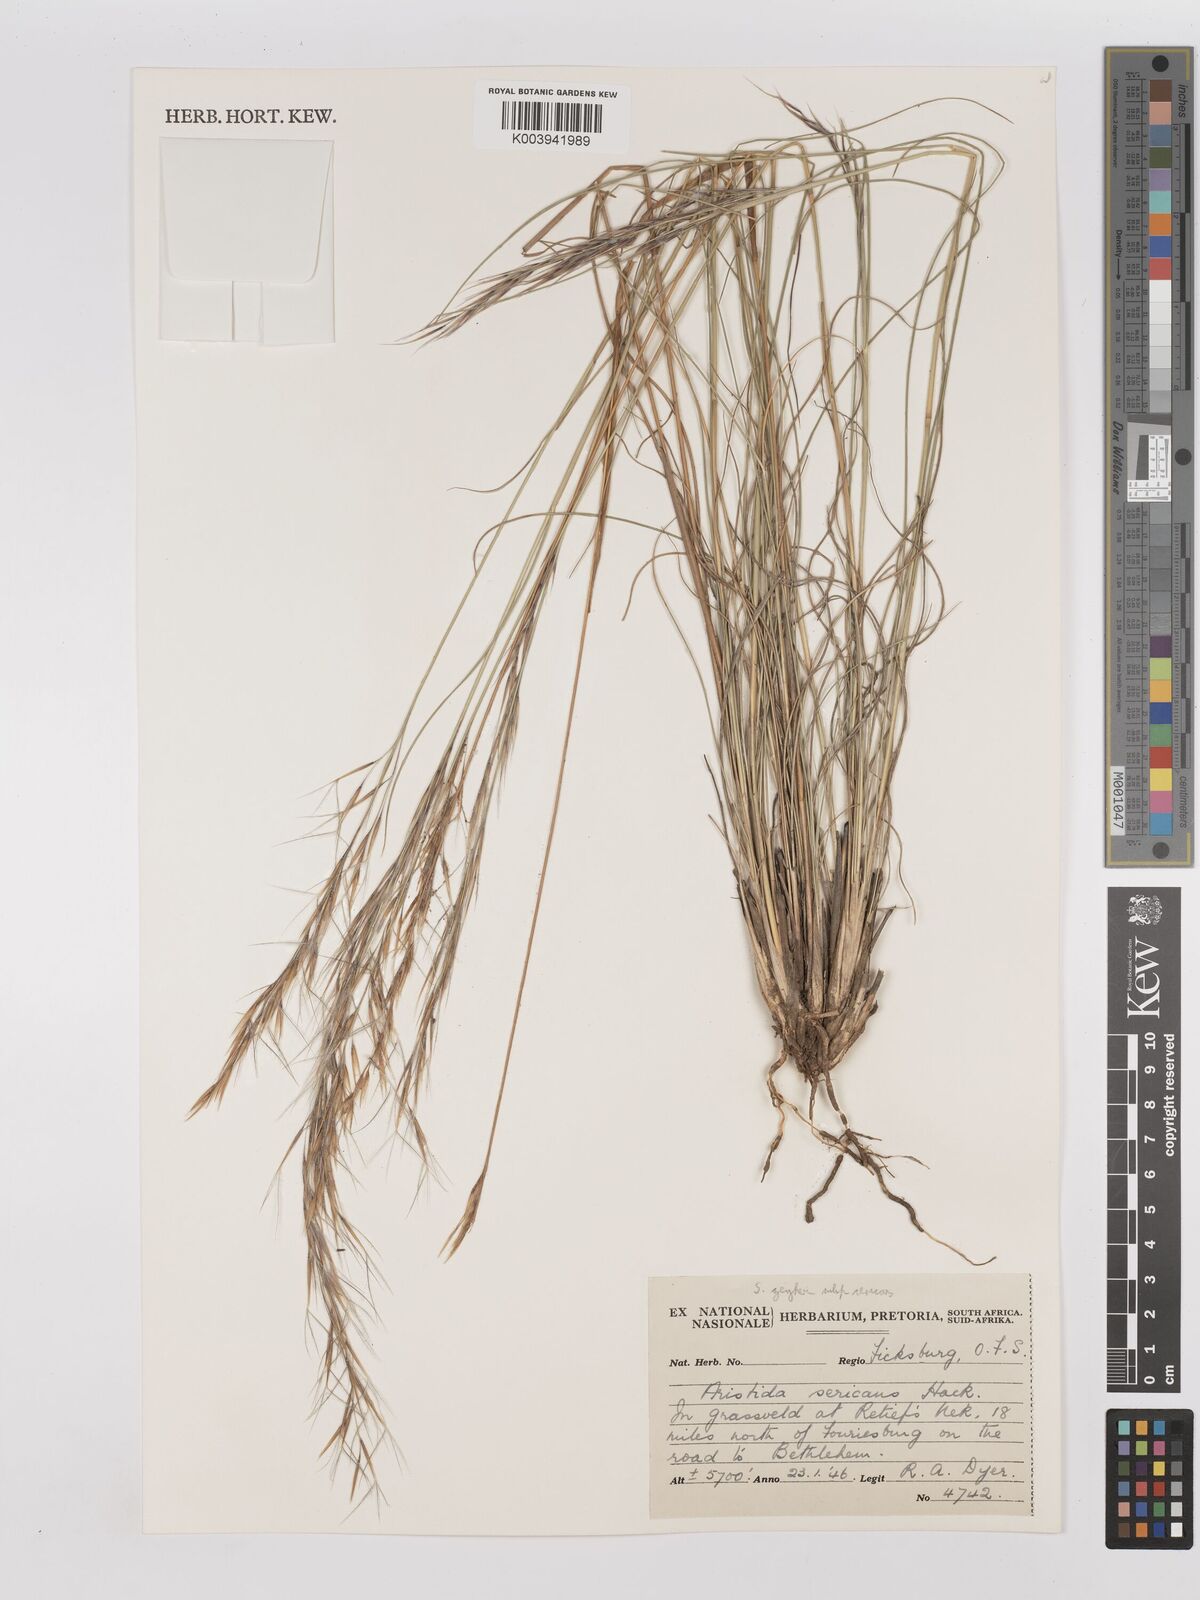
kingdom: Plantae
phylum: Tracheophyta
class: Liliopsida
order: Poales
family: Poaceae
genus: Stipagrostis
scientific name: Stipagrostis zeyheri
